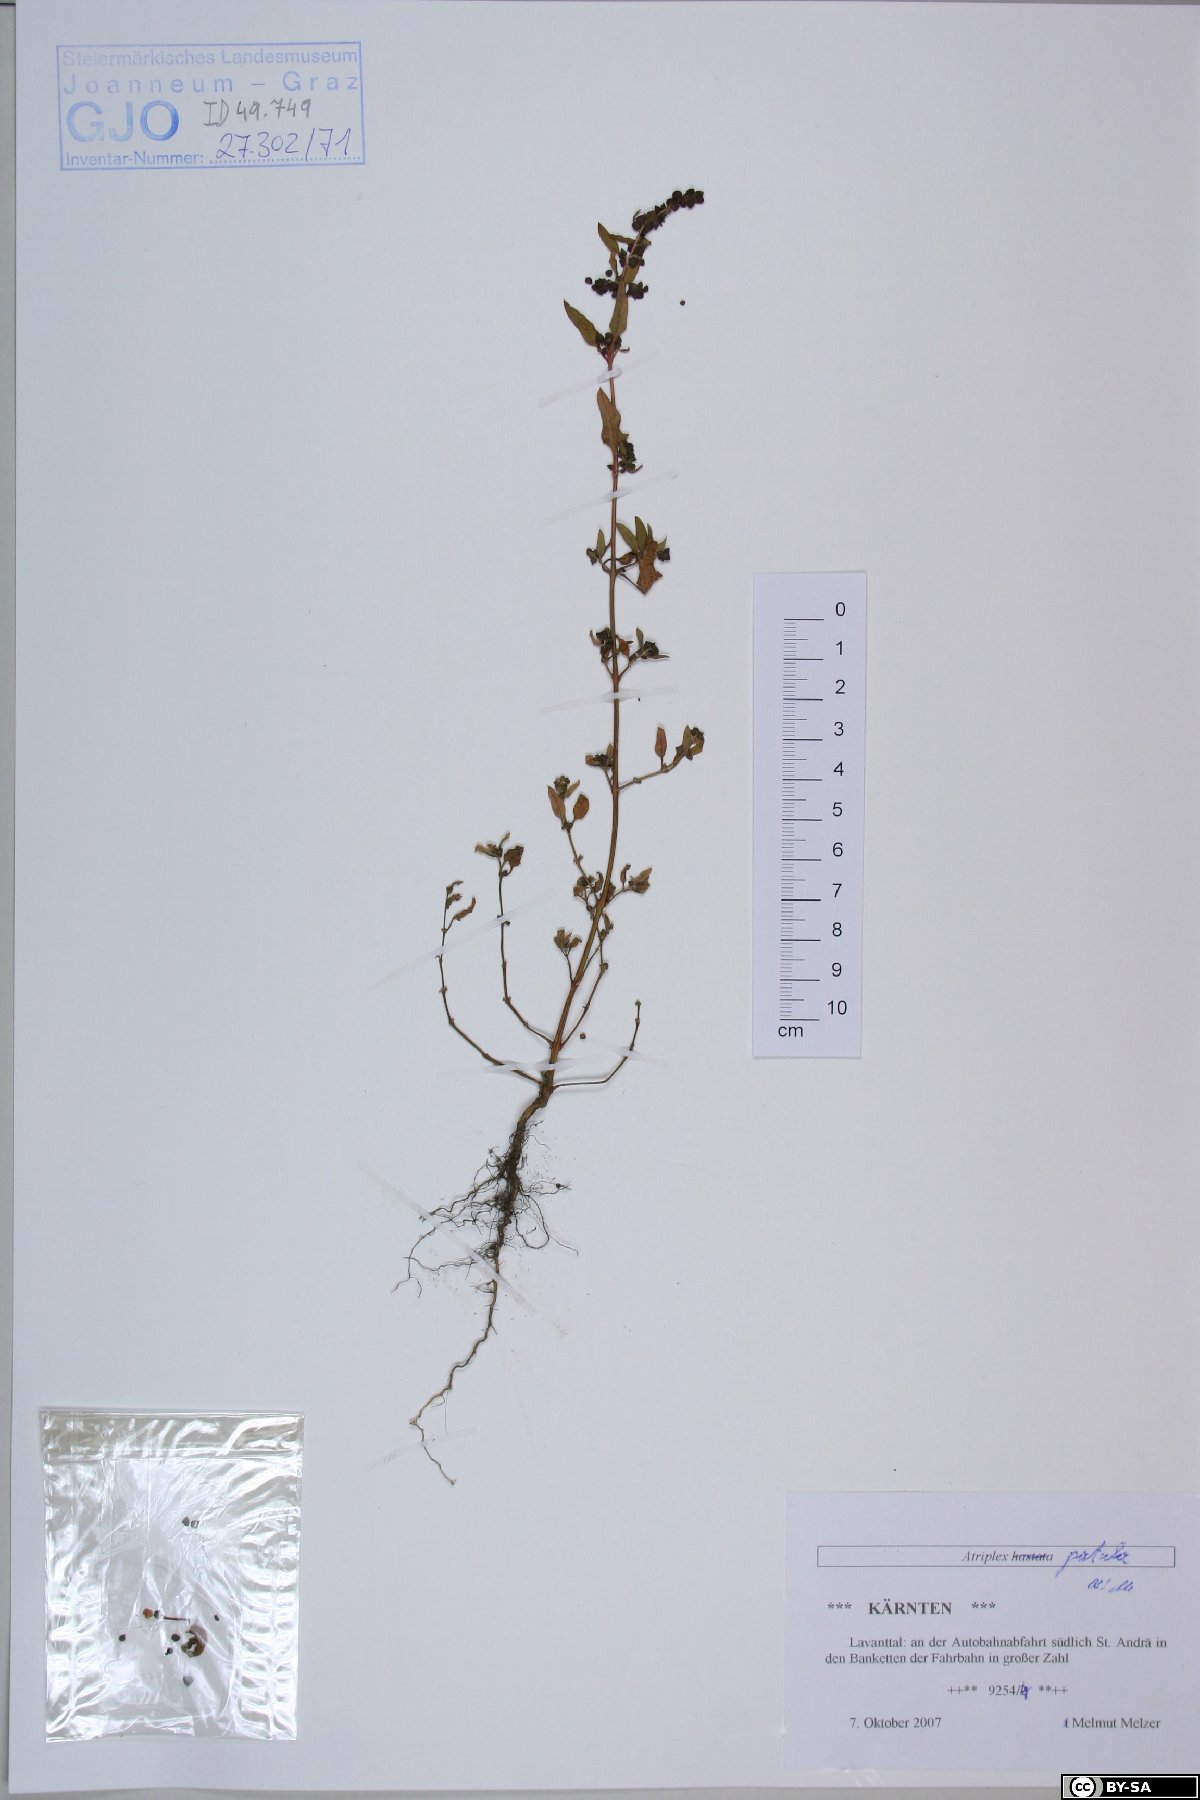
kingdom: Plantae
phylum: Tracheophyta
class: Magnoliopsida
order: Caryophyllales
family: Amaranthaceae
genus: Atriplex
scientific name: Atriplex patula
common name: Common orache
